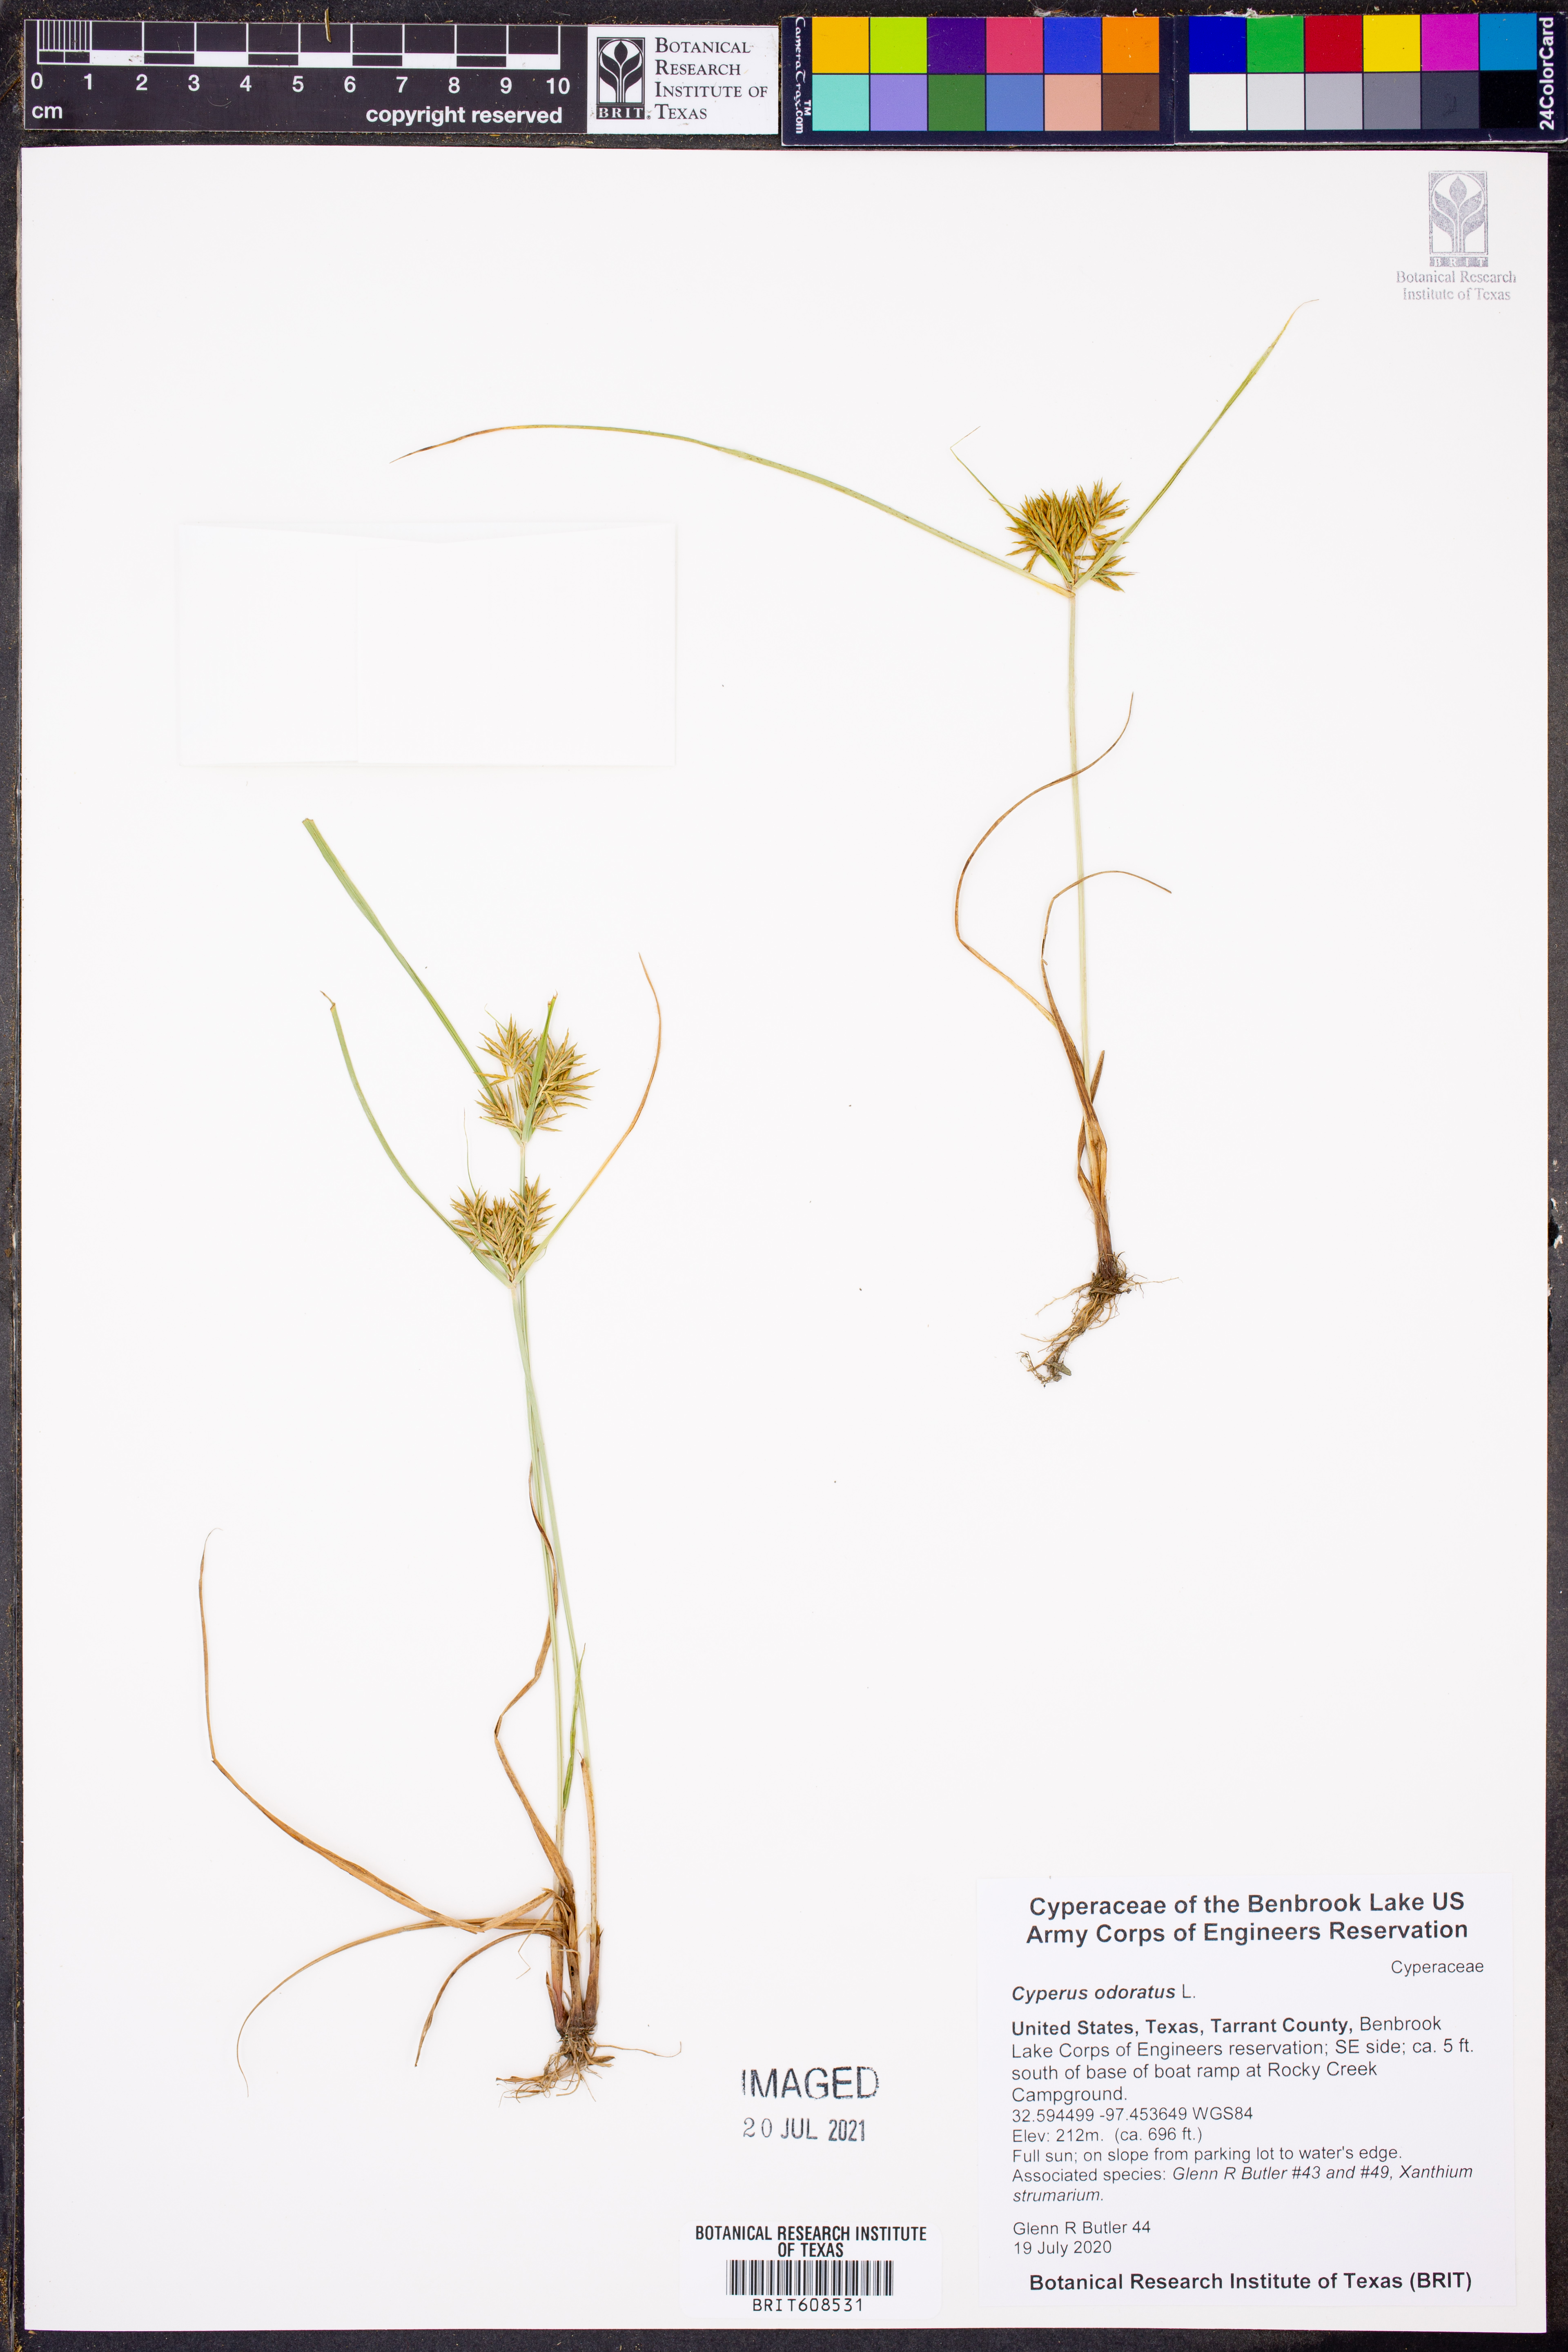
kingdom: Plantae
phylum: Tracheophyta
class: Liliopsida
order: Poales
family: Cyperaceae
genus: Cyperus
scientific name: Cyperus odoratus
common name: Fragrant flatsedge
